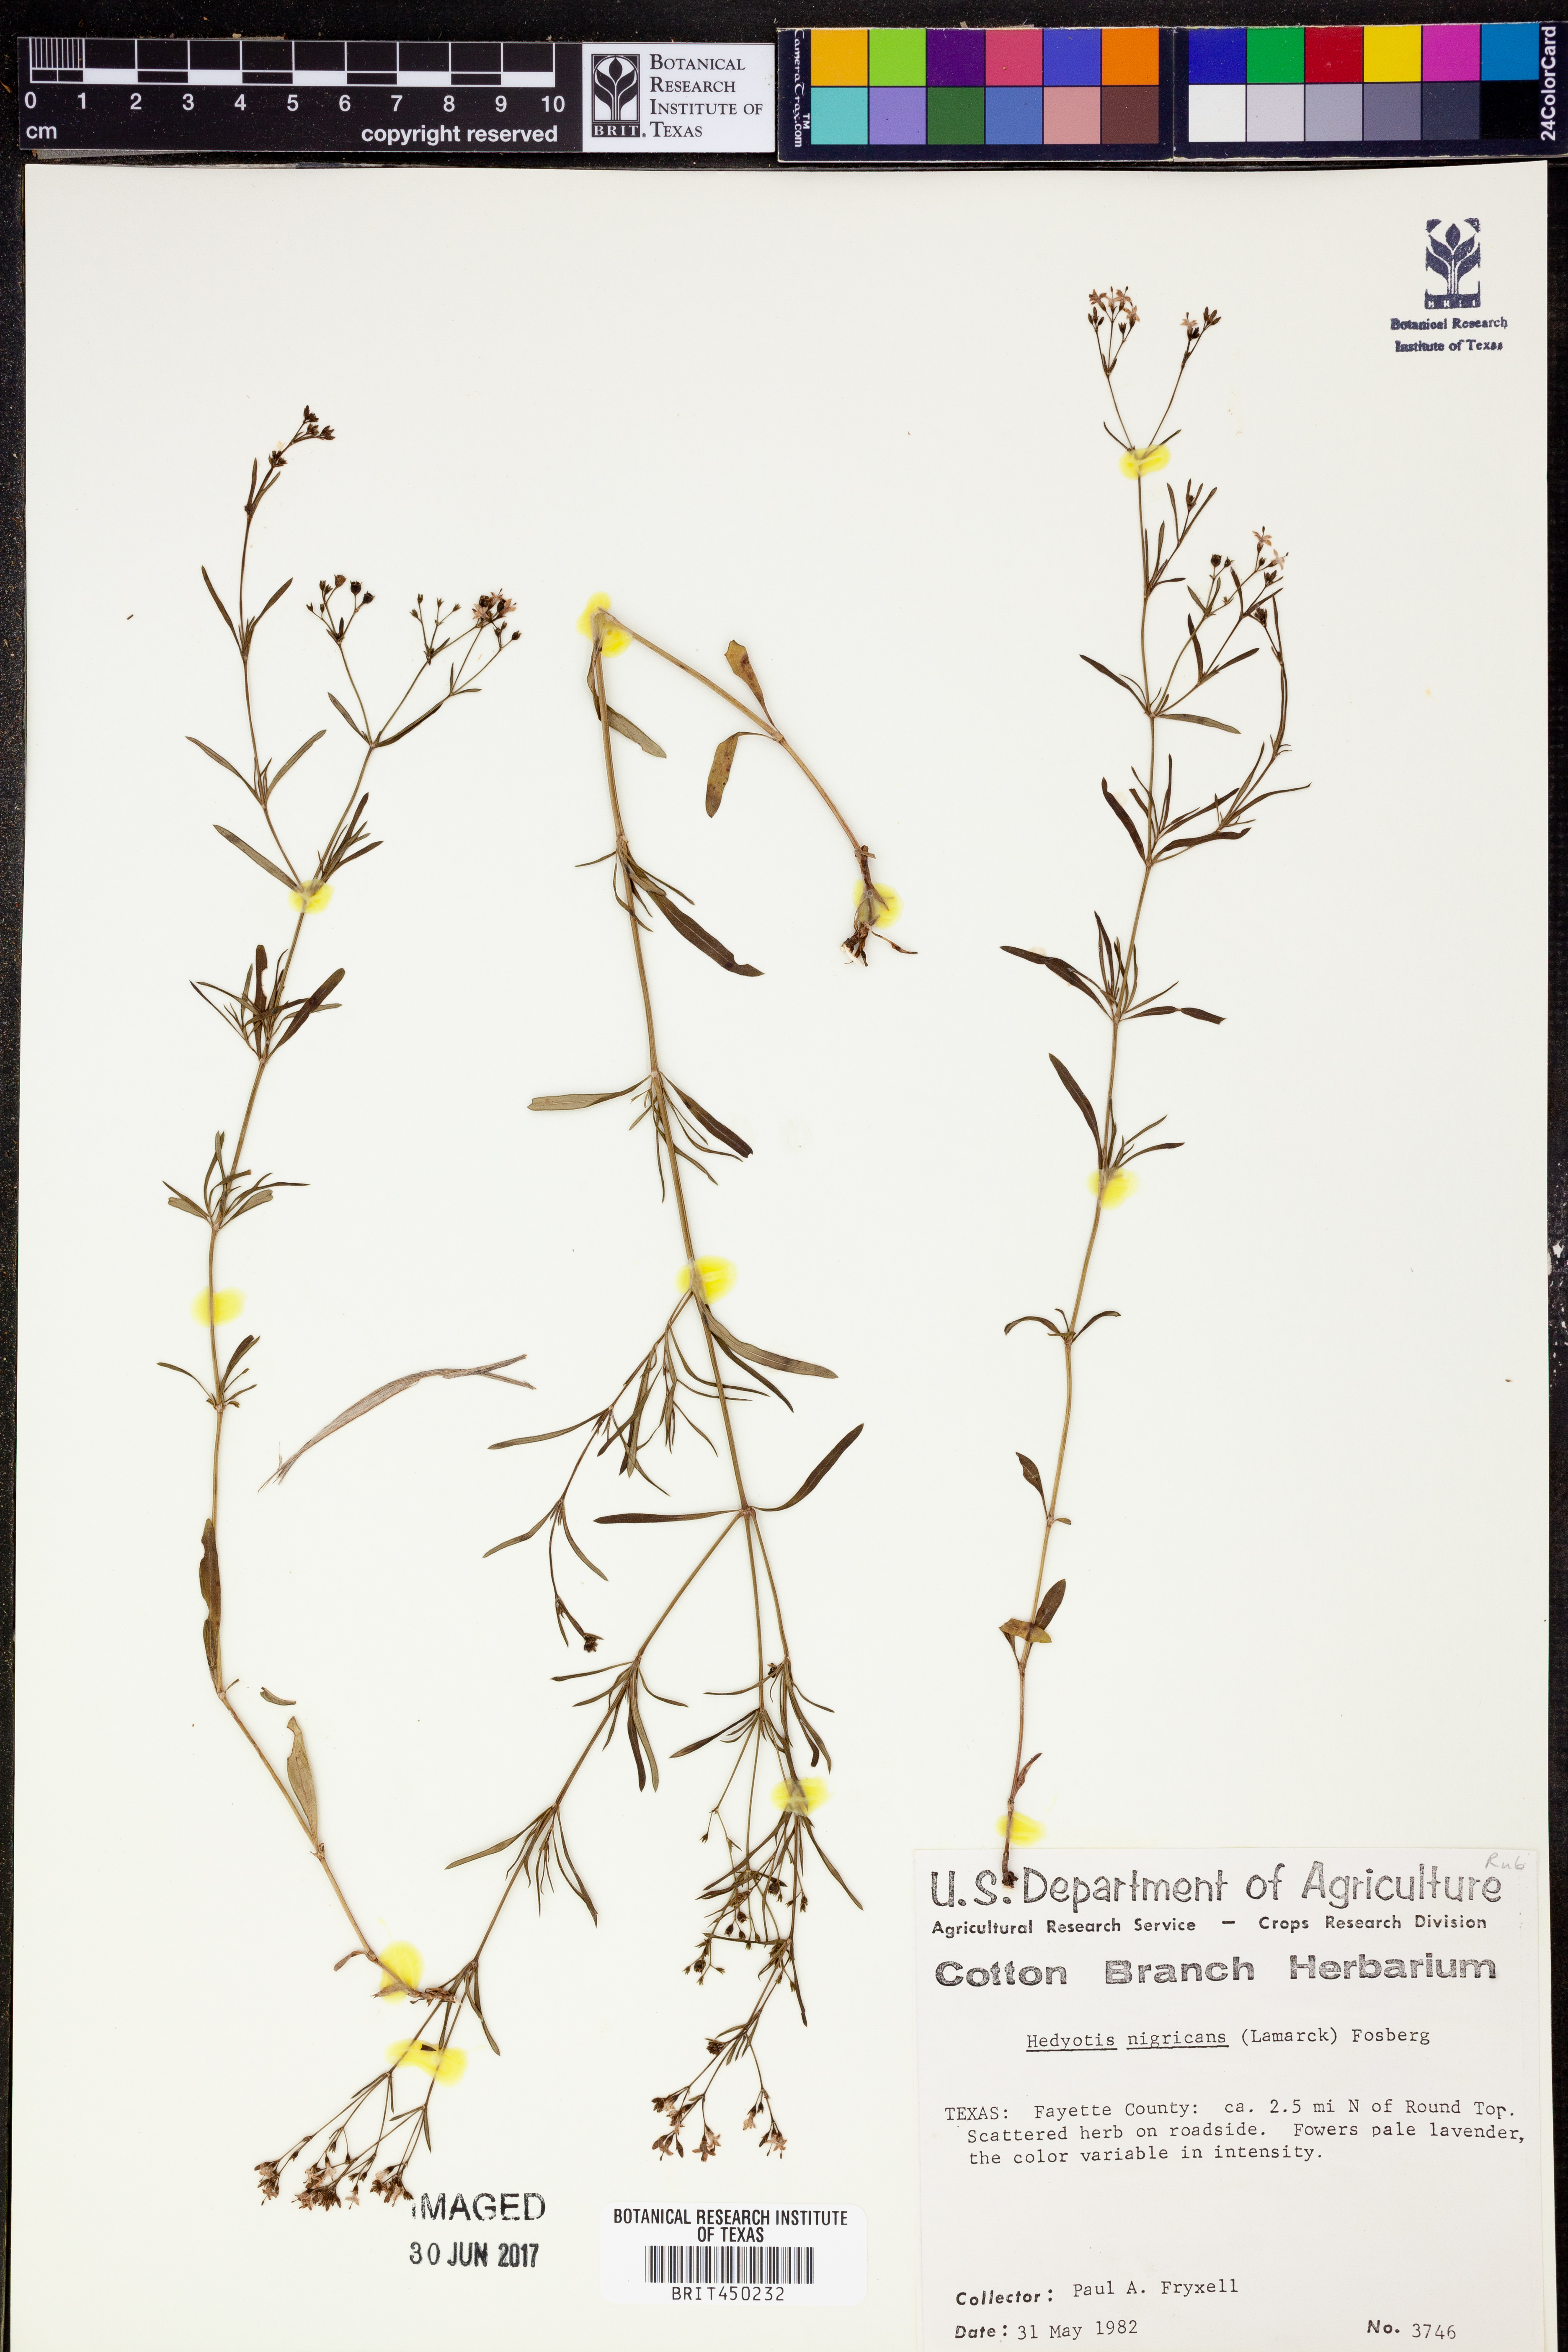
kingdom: Plantae
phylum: Tracheophyta
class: Magnoliopsida
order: Gentianales
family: Rubiaceae
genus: Stenaria
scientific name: Stenaria nigricans
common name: Diamondflowers
